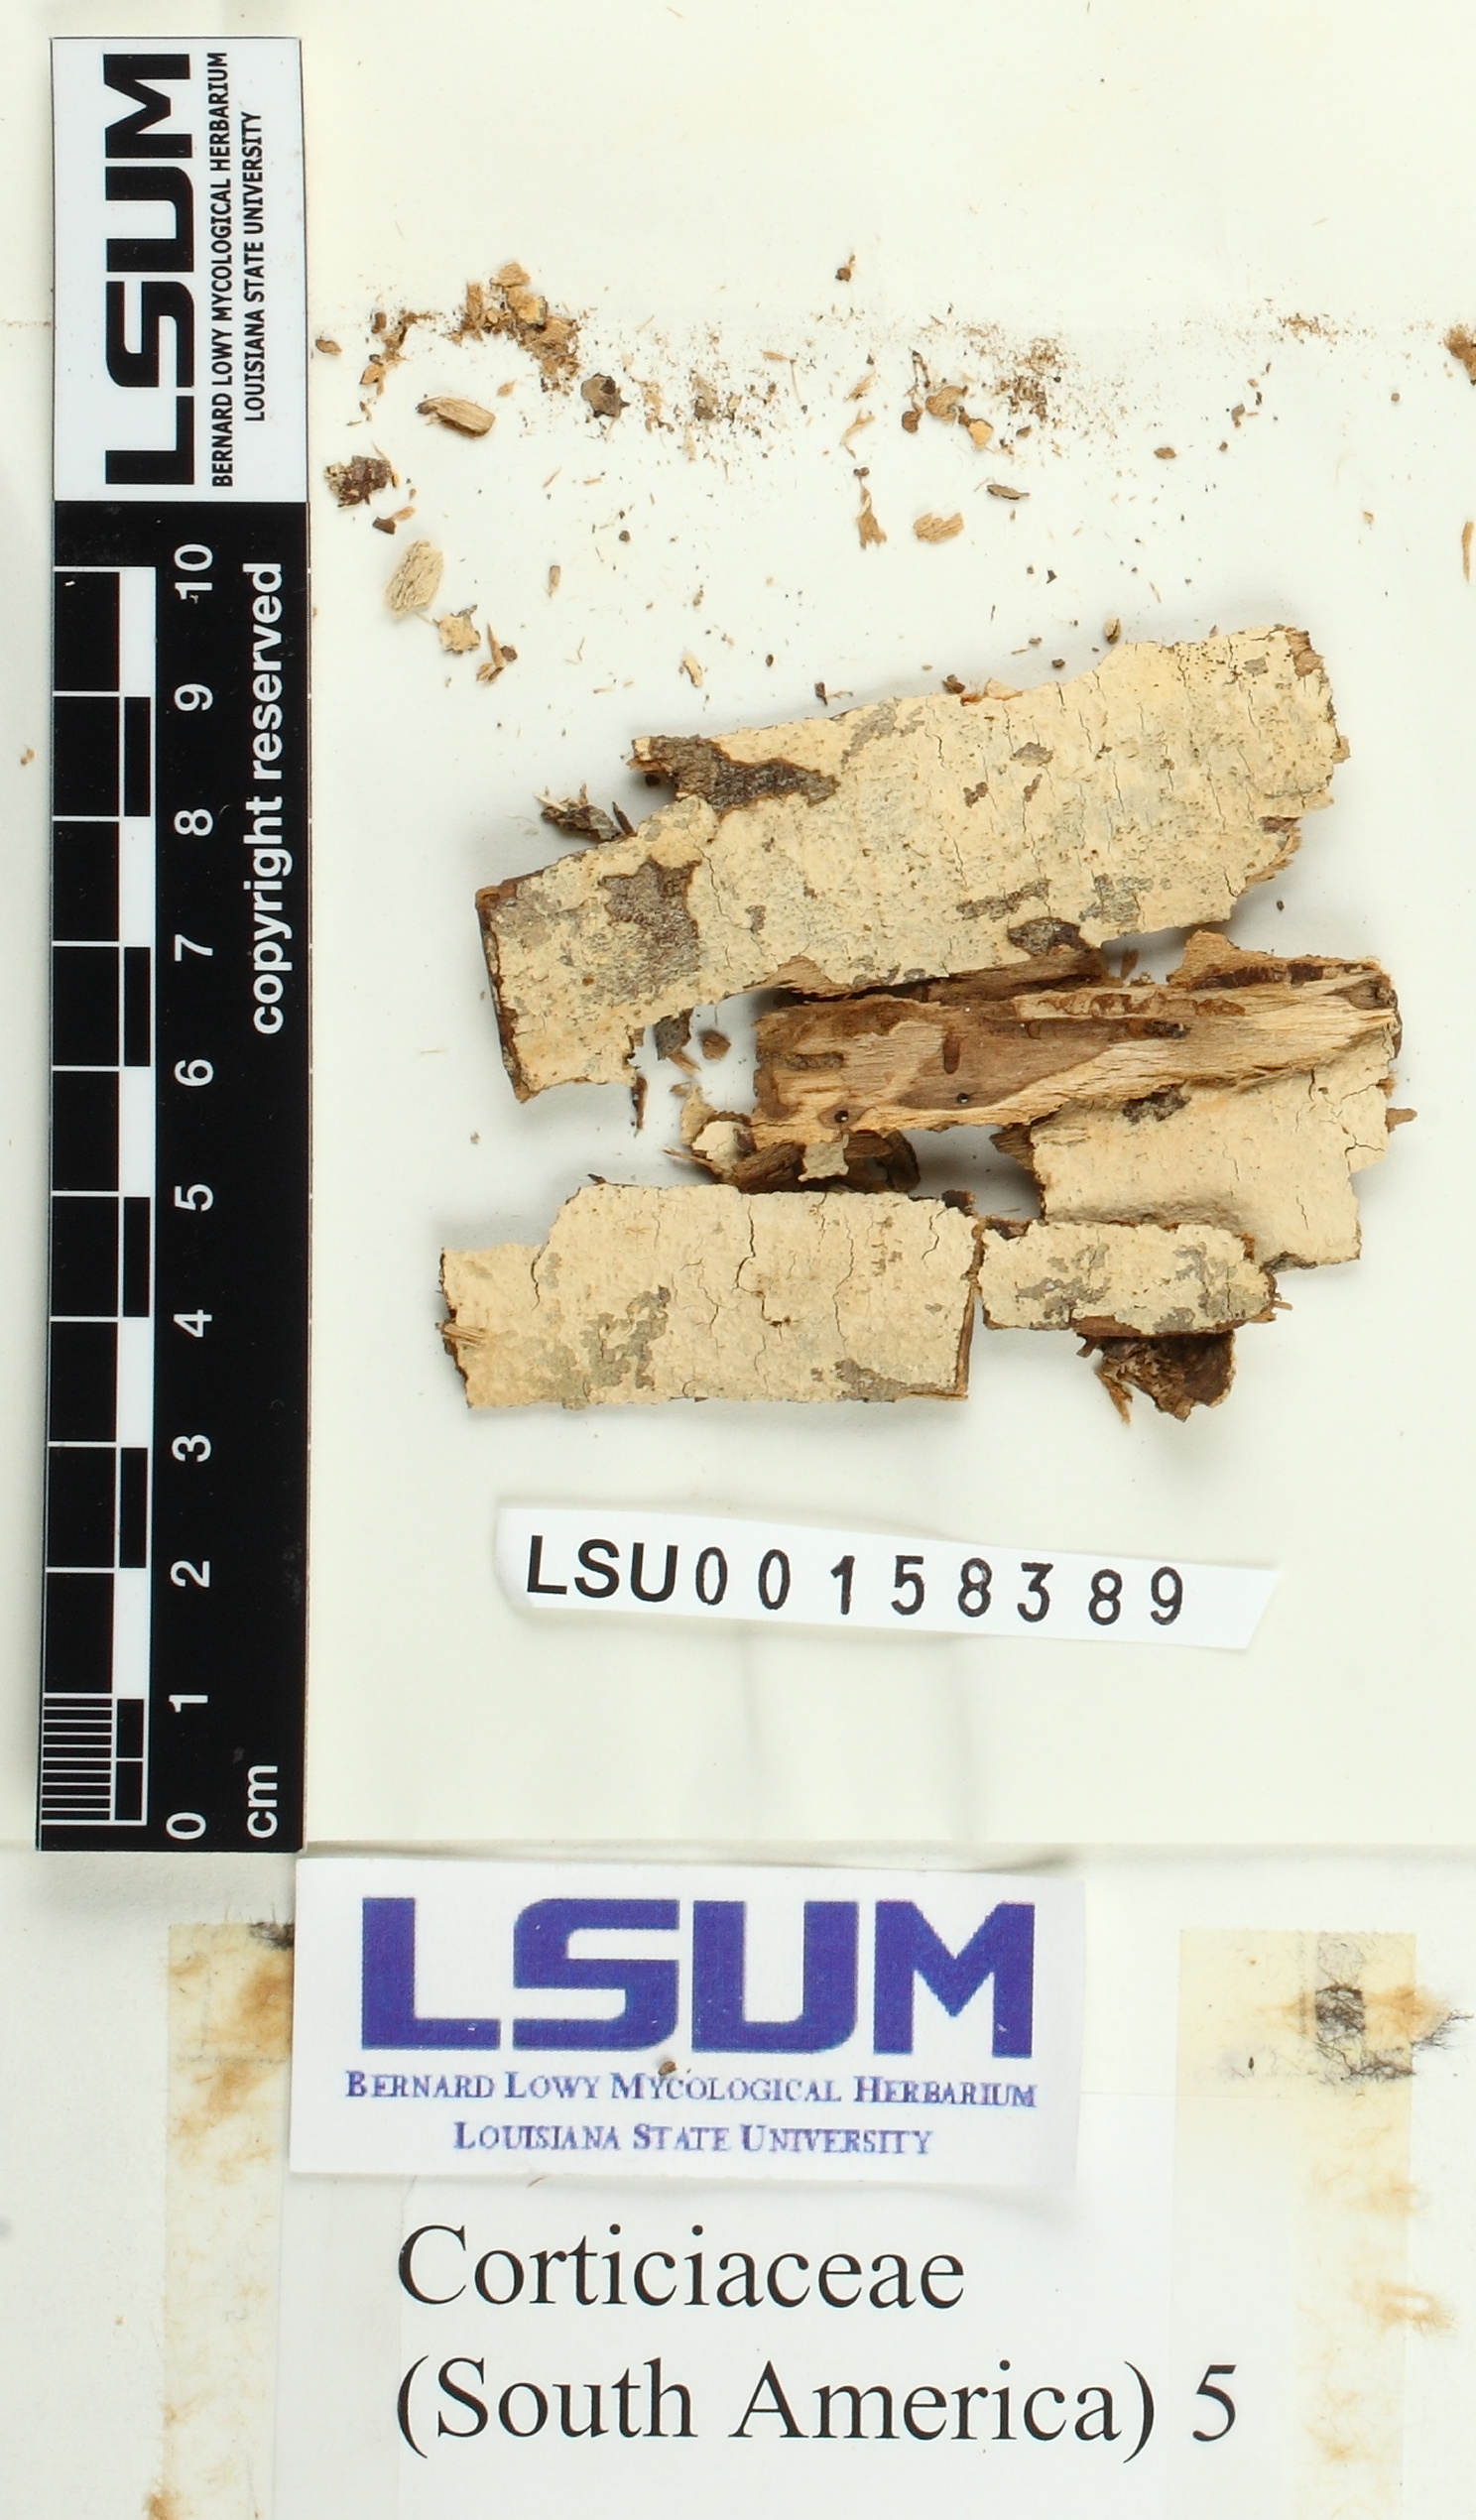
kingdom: Fungi
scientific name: Fungi
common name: Fungi
